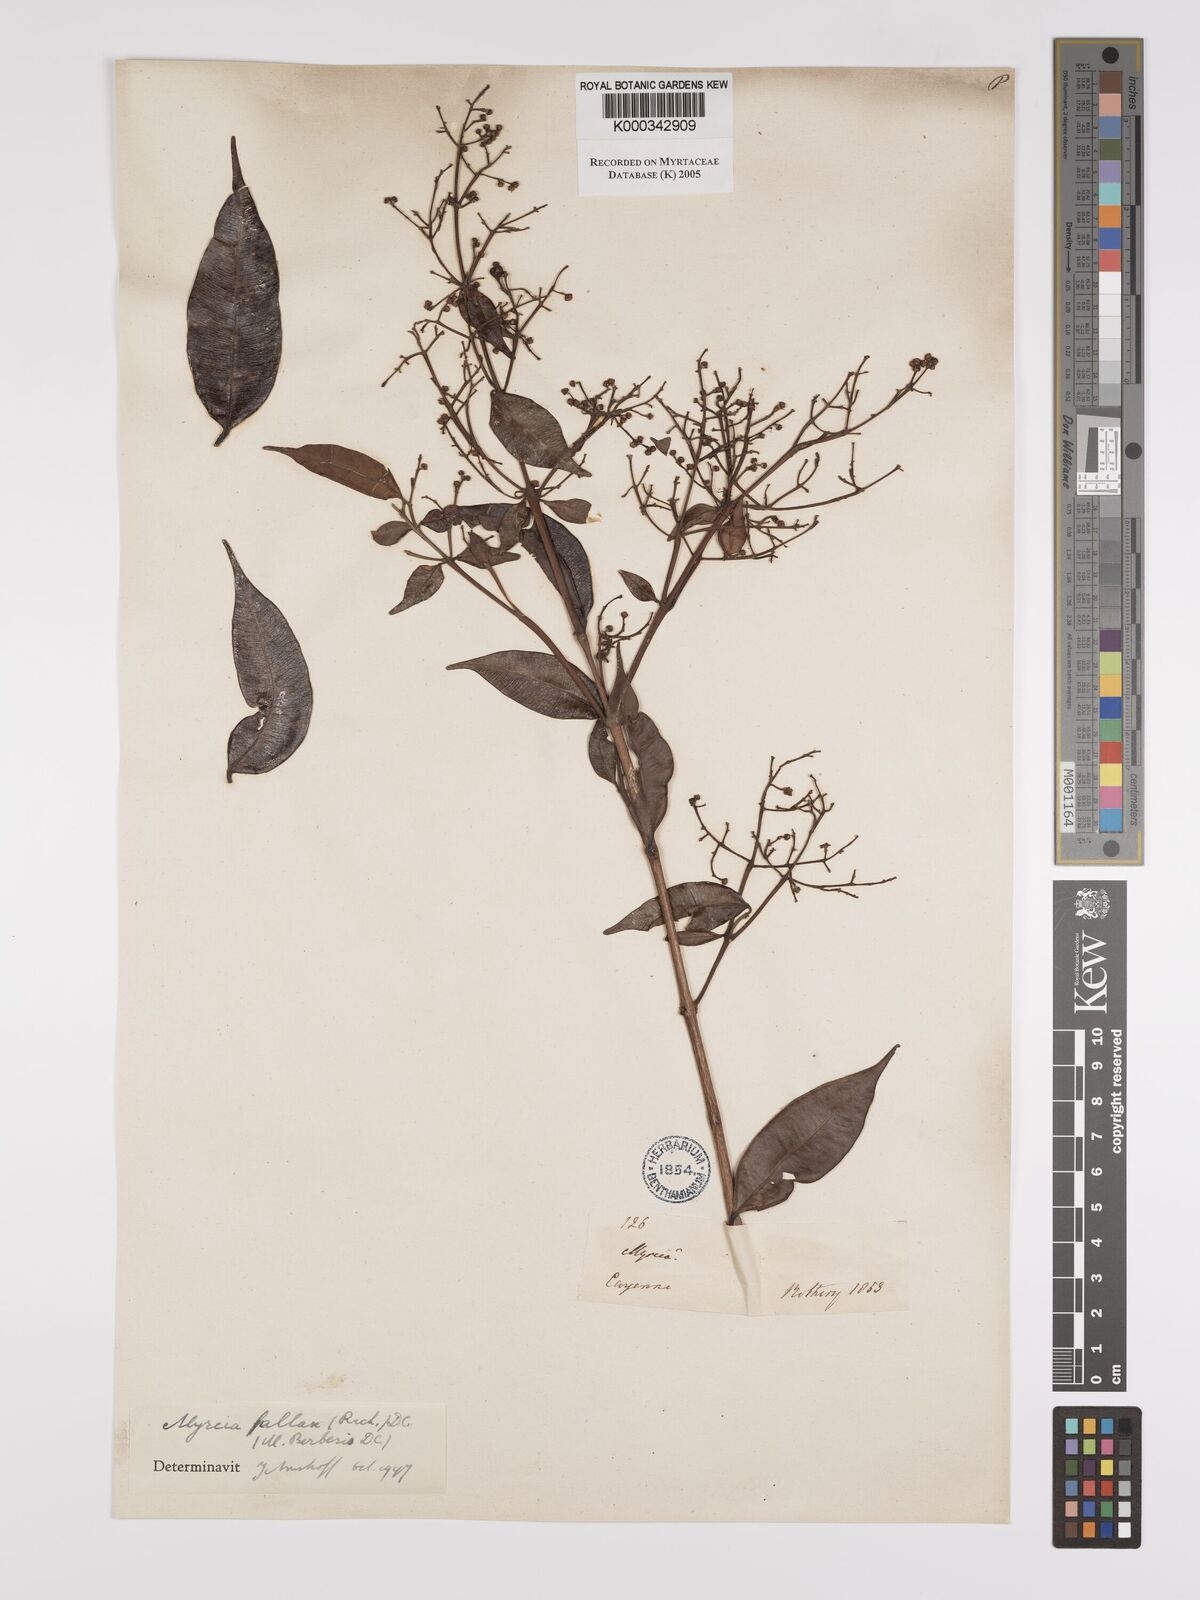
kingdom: Plantae
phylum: Tracheophyta
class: Magnoliopsida
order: Myrtales
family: Myrtaceae
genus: Myrcia
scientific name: Myrcia splendens
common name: Surinam cherry
